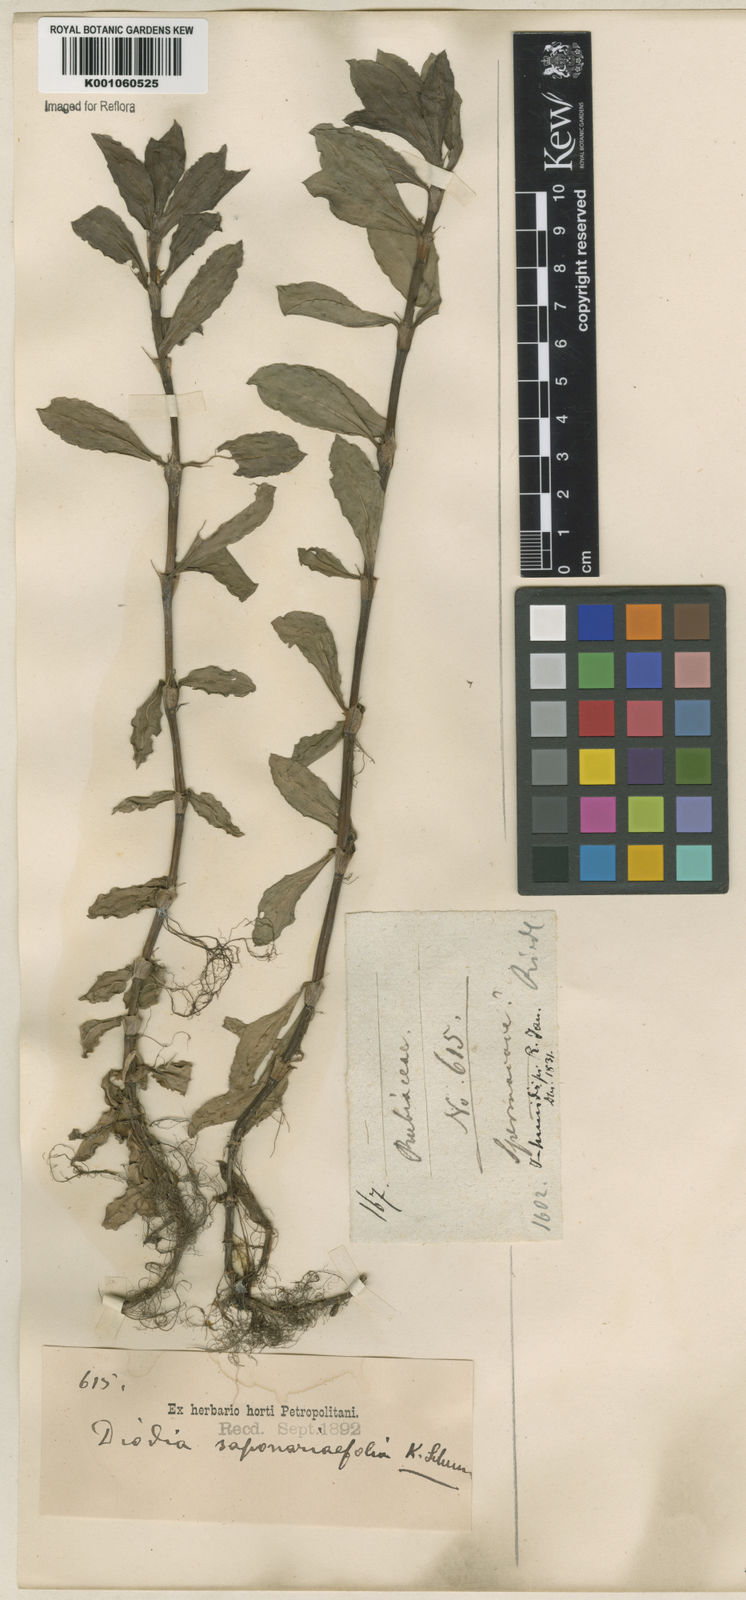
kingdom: Plantae
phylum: Tracheophyta
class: Magnoliopsida
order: Gentianales
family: Rubiaceae
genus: Diodia
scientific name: Diodia saponariifolia
